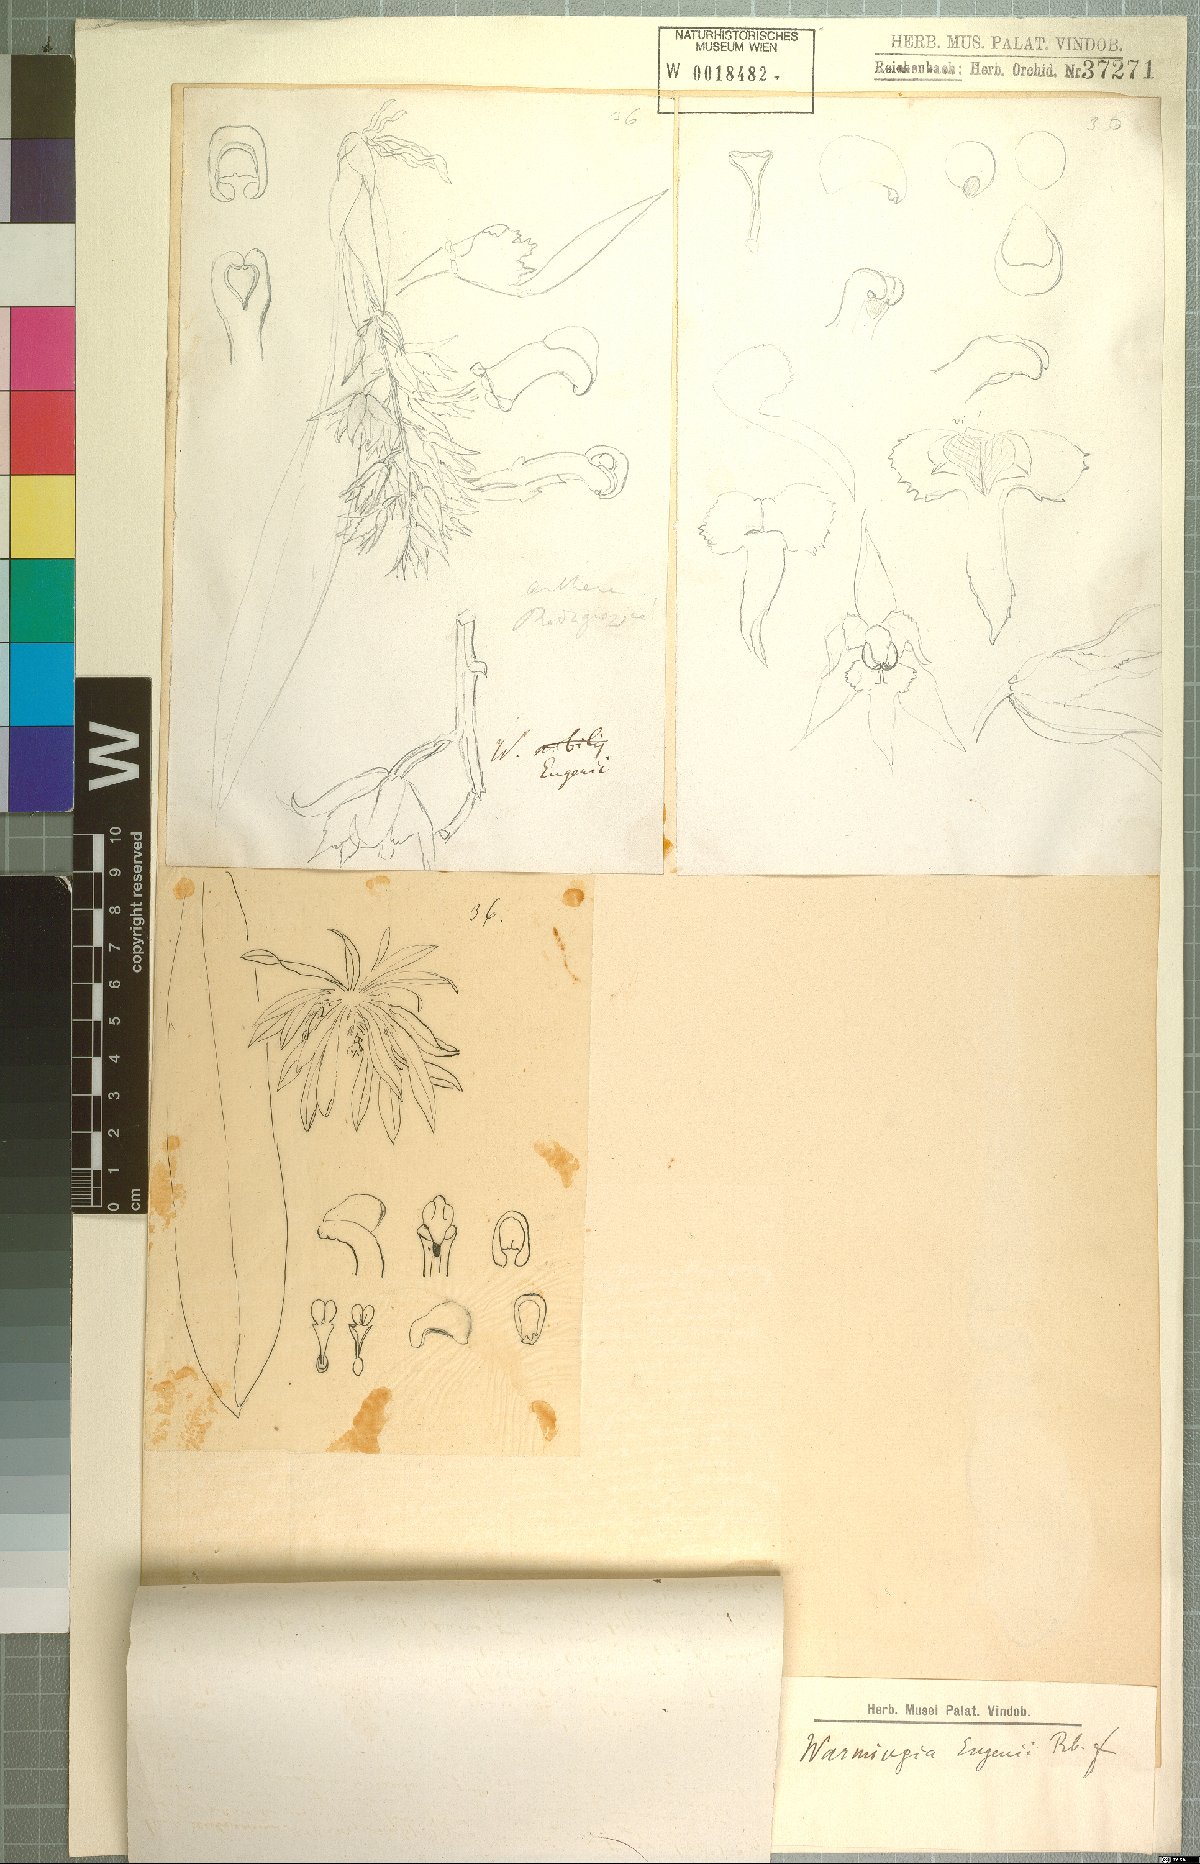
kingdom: Plantae
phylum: Tracheophyta
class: Liliopsida
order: Asparagales
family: Orchidaceae
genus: Warmingia
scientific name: Warmingia eugenii
